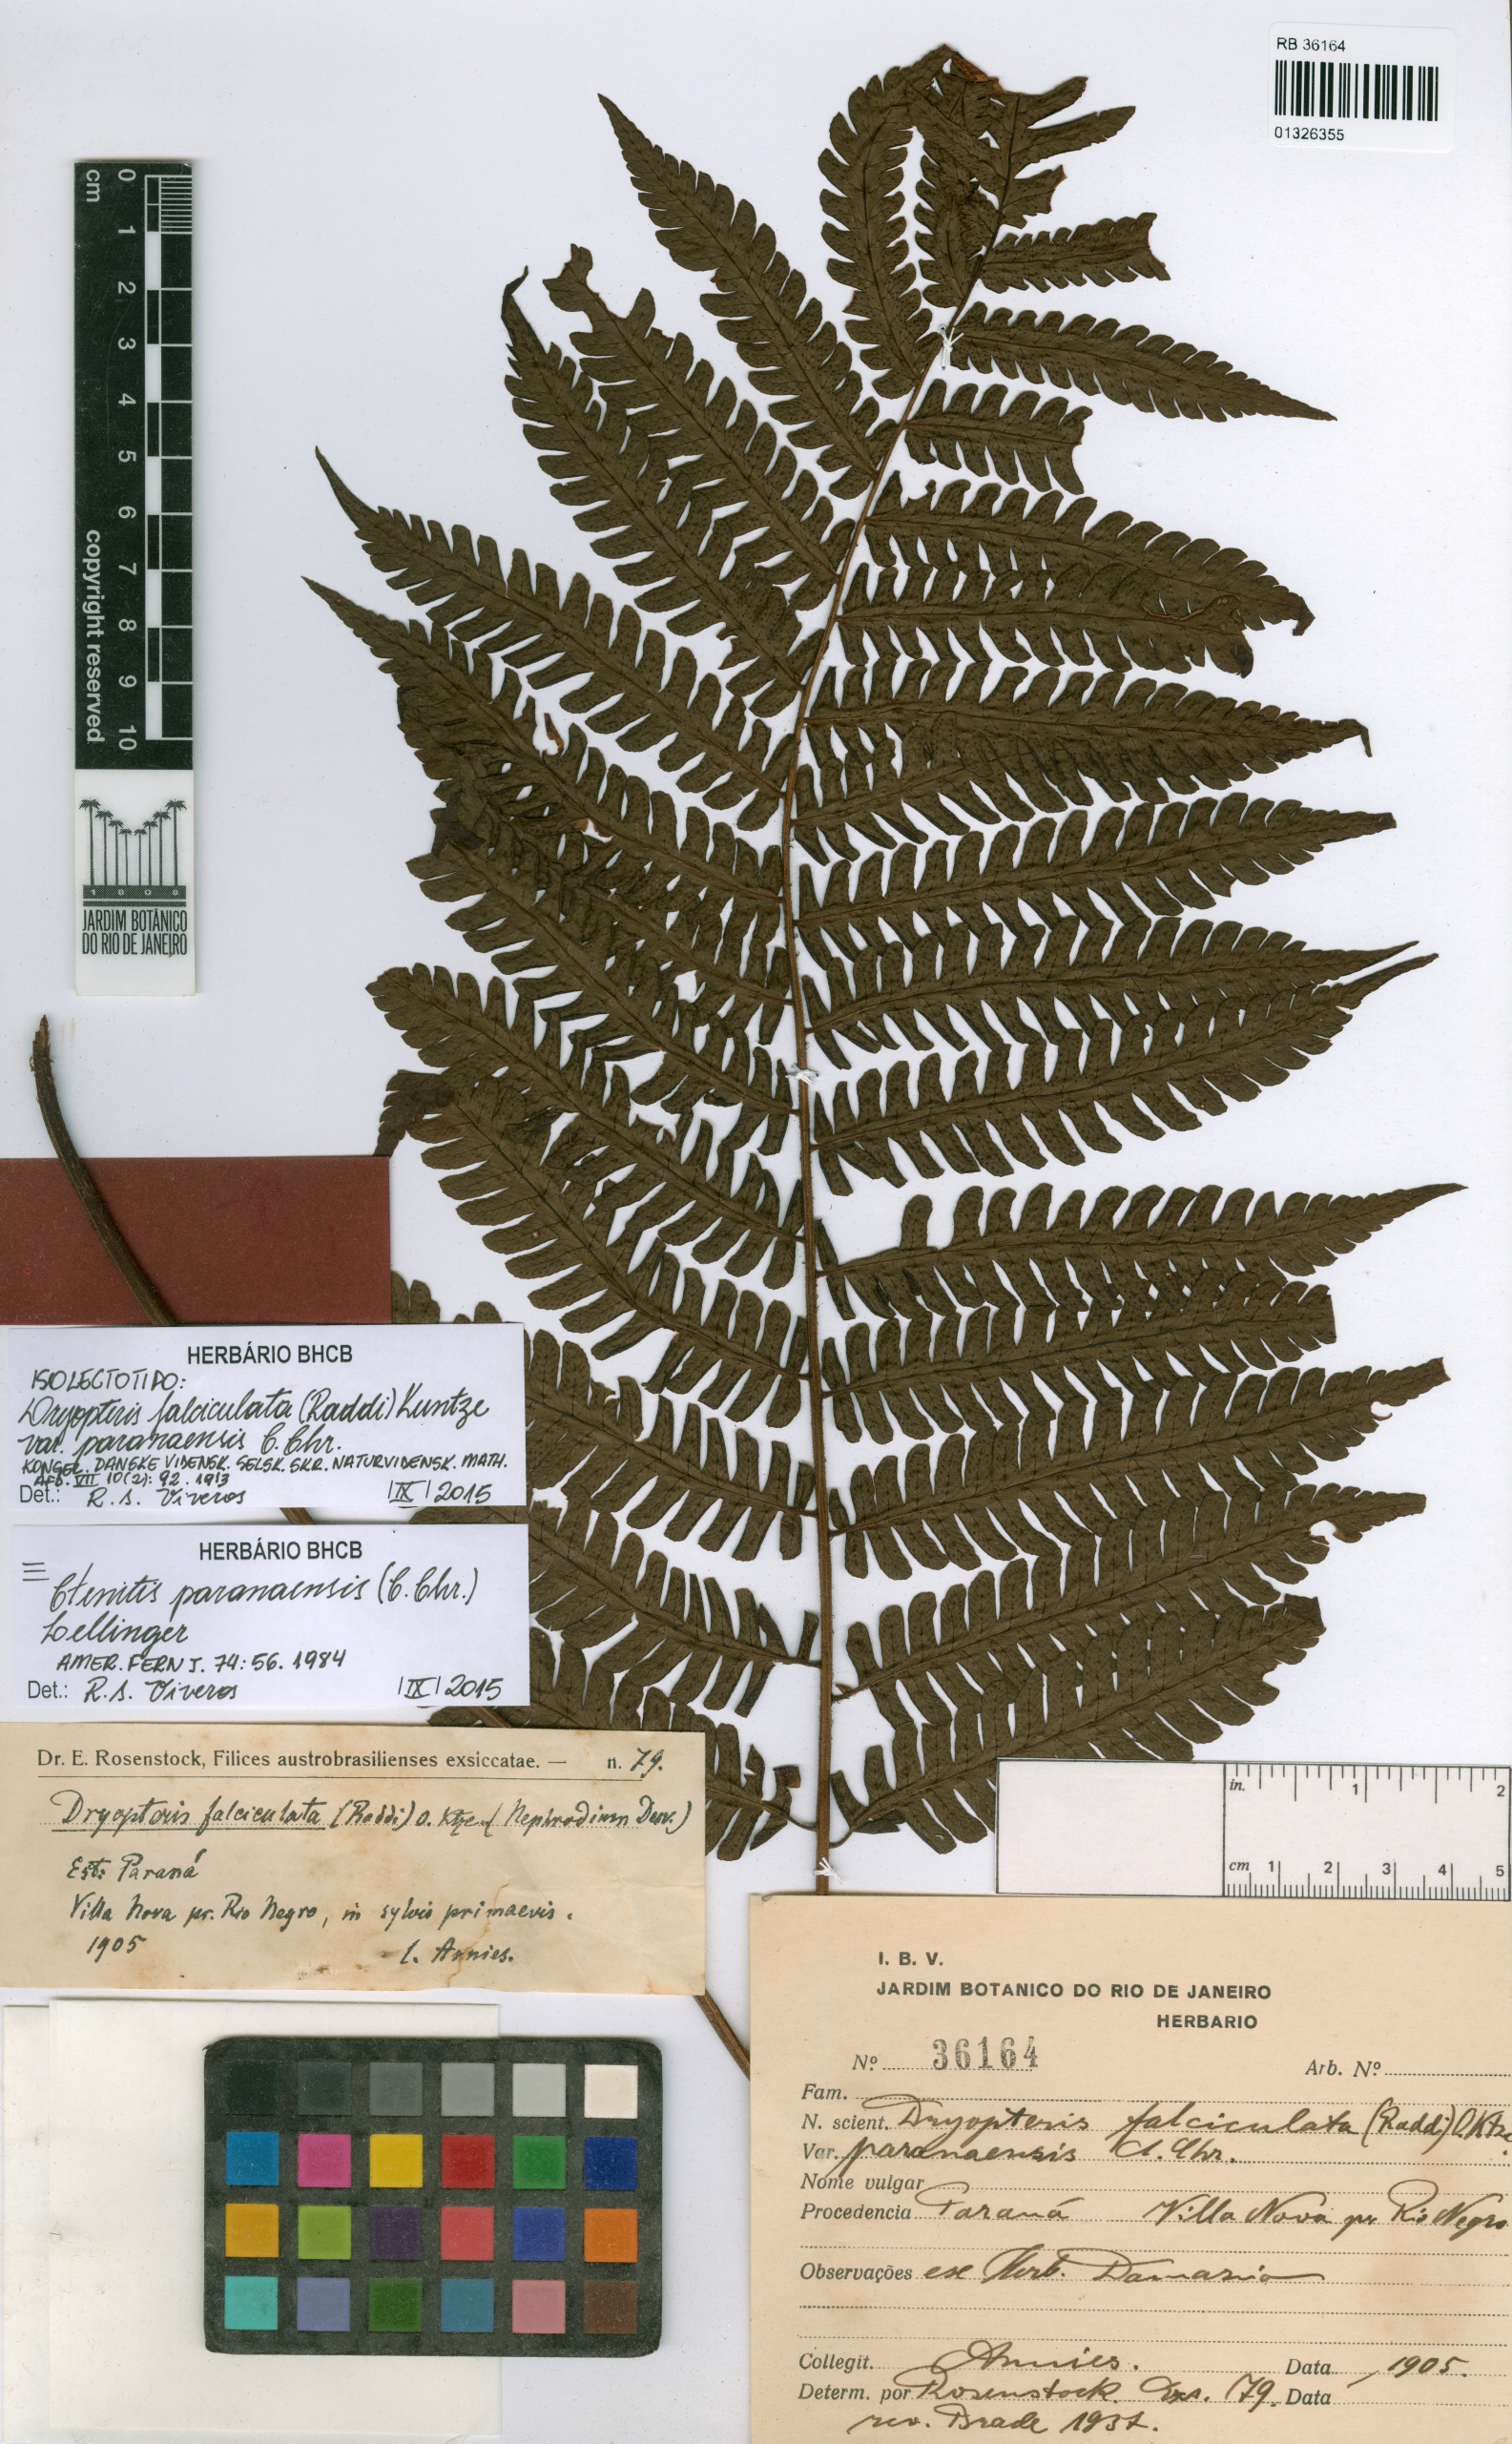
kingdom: Plantae
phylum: Tracheophyta
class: Polypodiopsida
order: Polypodiales
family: Dryopteridaceae
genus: Ctenitis
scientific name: Ctenitis paranaensis
